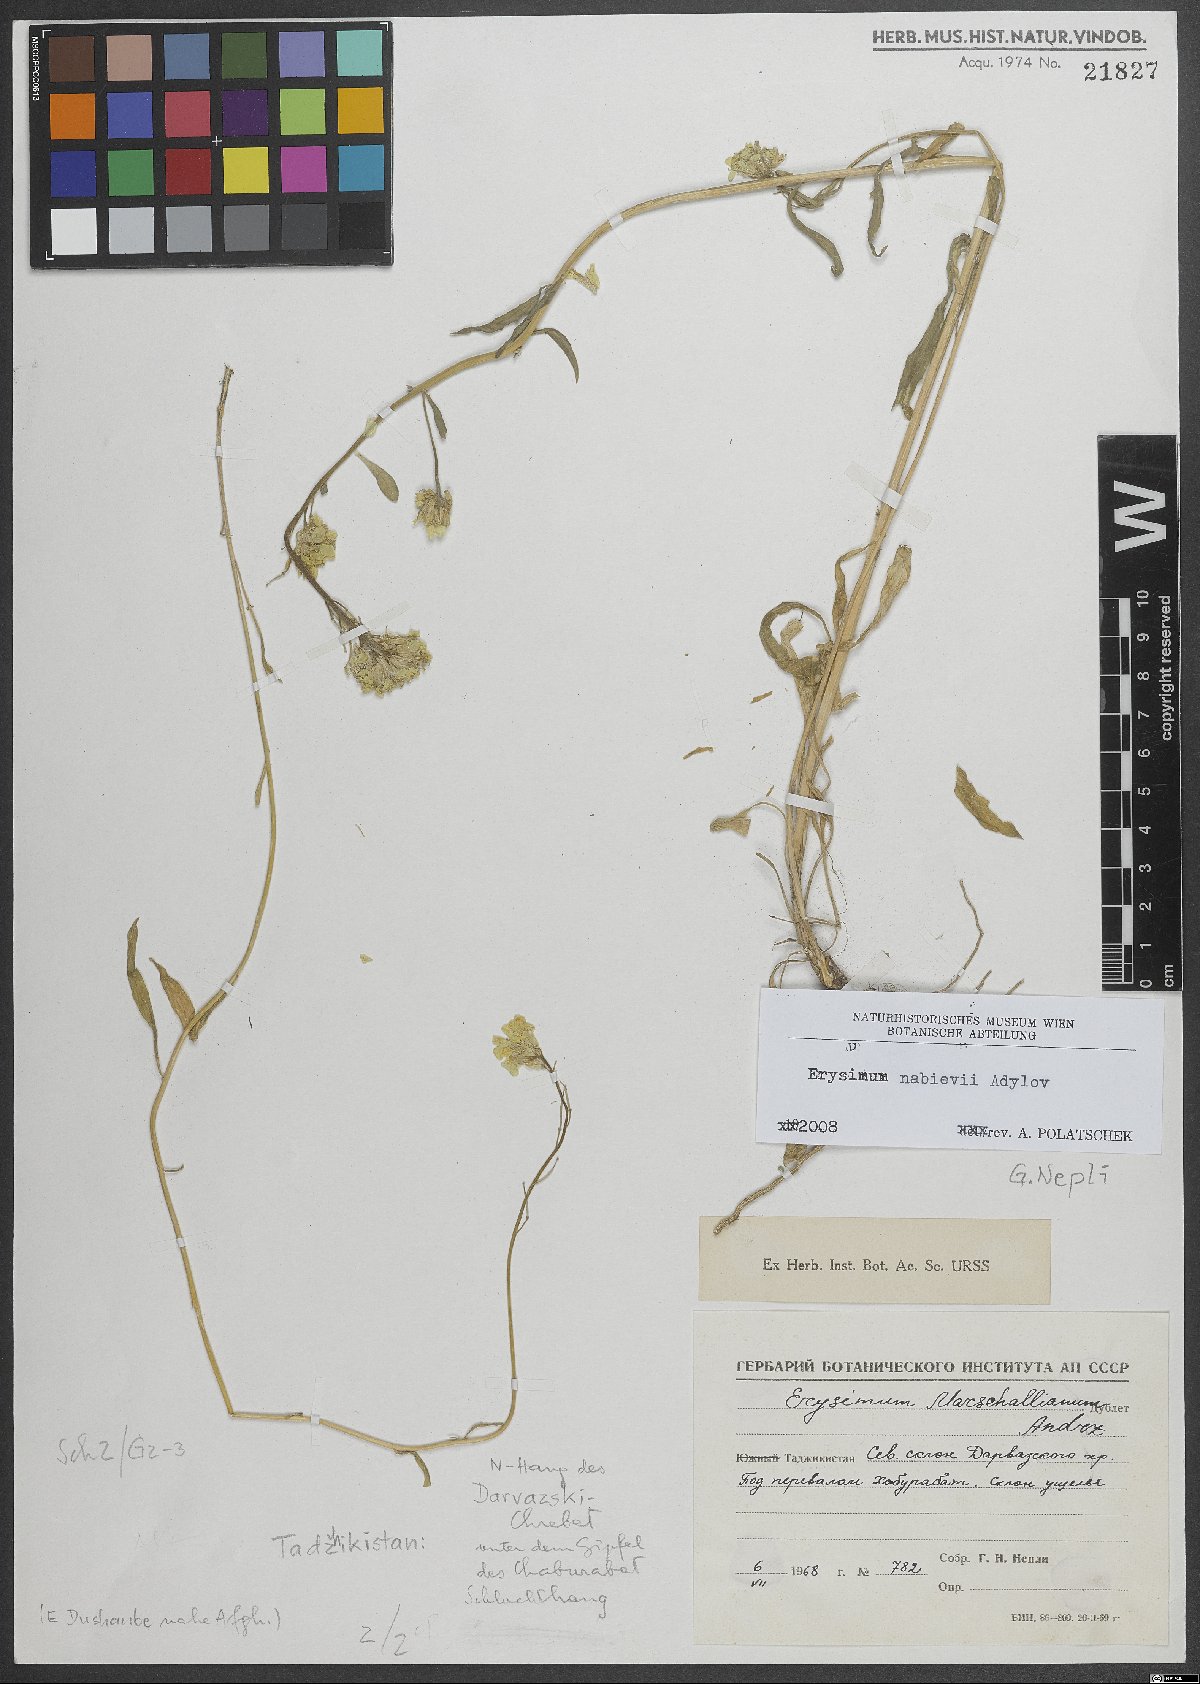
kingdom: Plantae
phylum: Tracheophyta
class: Magnoliopsida
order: Brassicales
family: Brassicaceae
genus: Erysimum
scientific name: Erysimum nabievii
